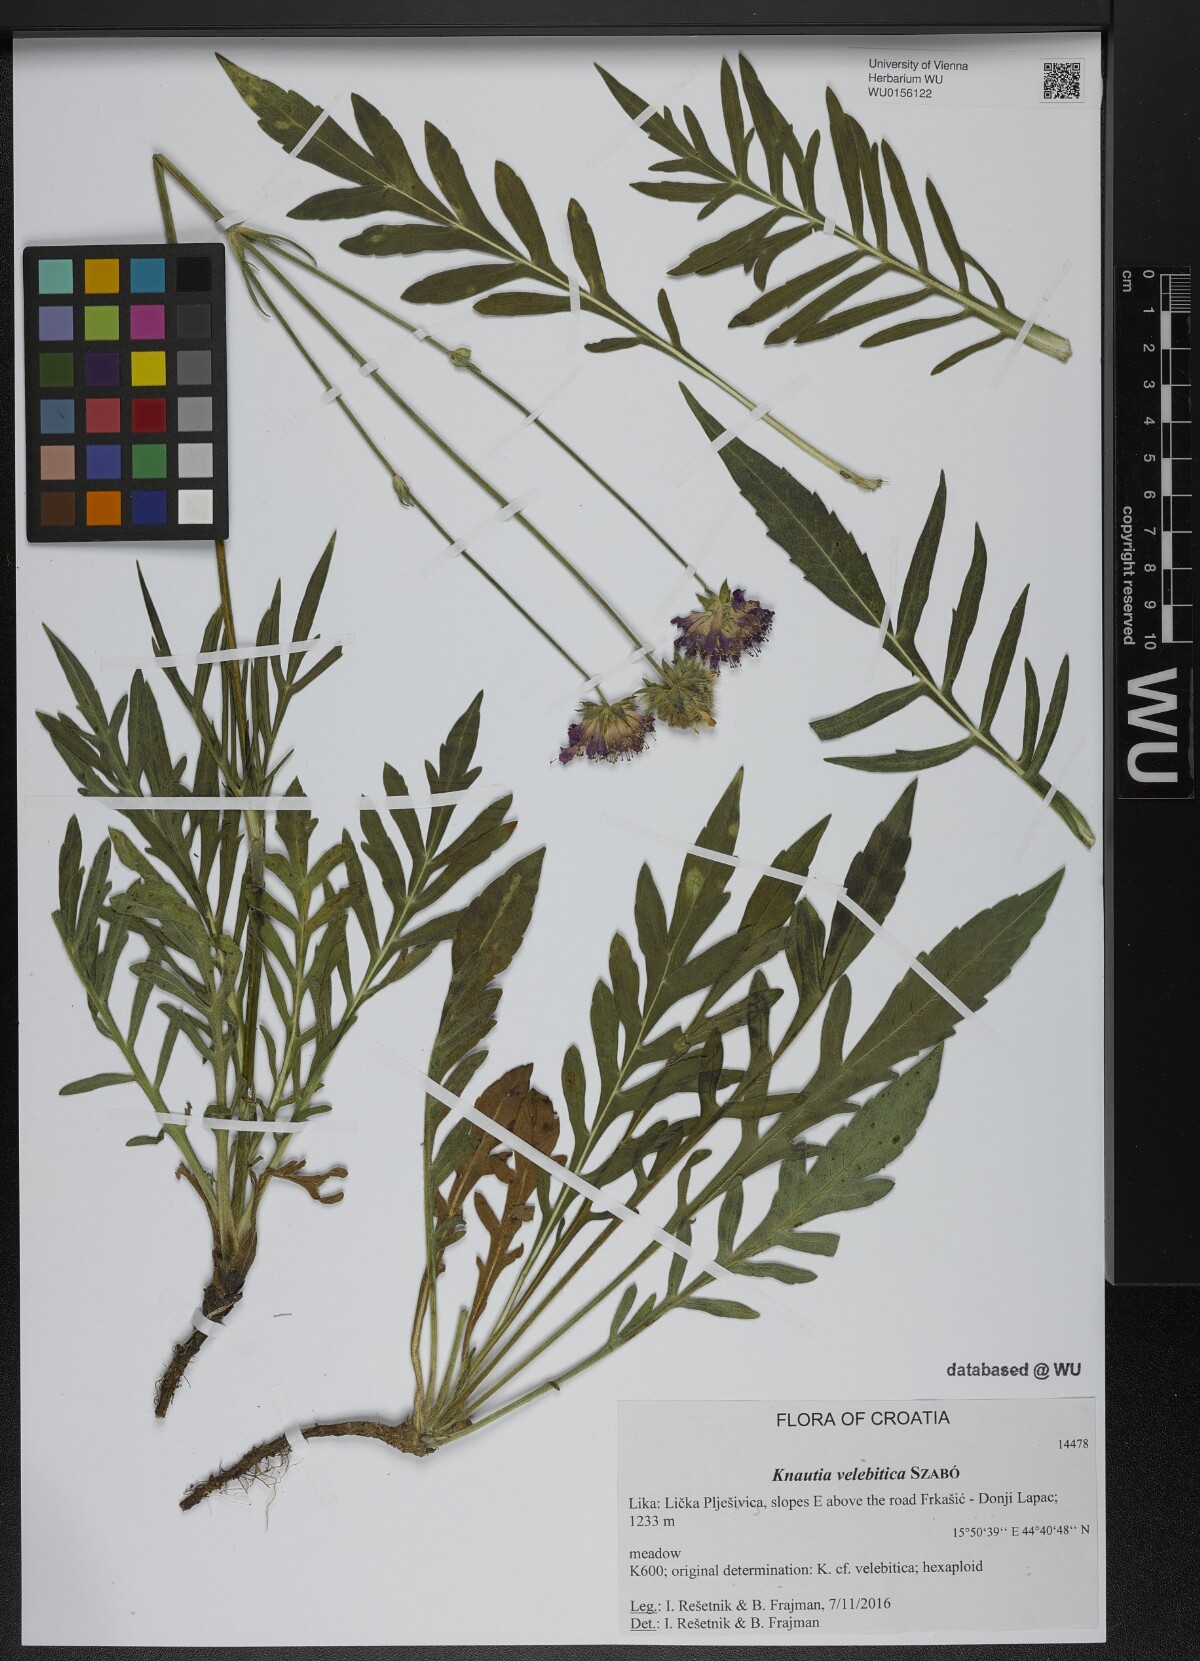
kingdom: Plantae
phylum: Tracheophyta
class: Magnoliopsida
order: Dipsacales
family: Caprifoliaceae
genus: Knautia
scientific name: Knautia velebitica
